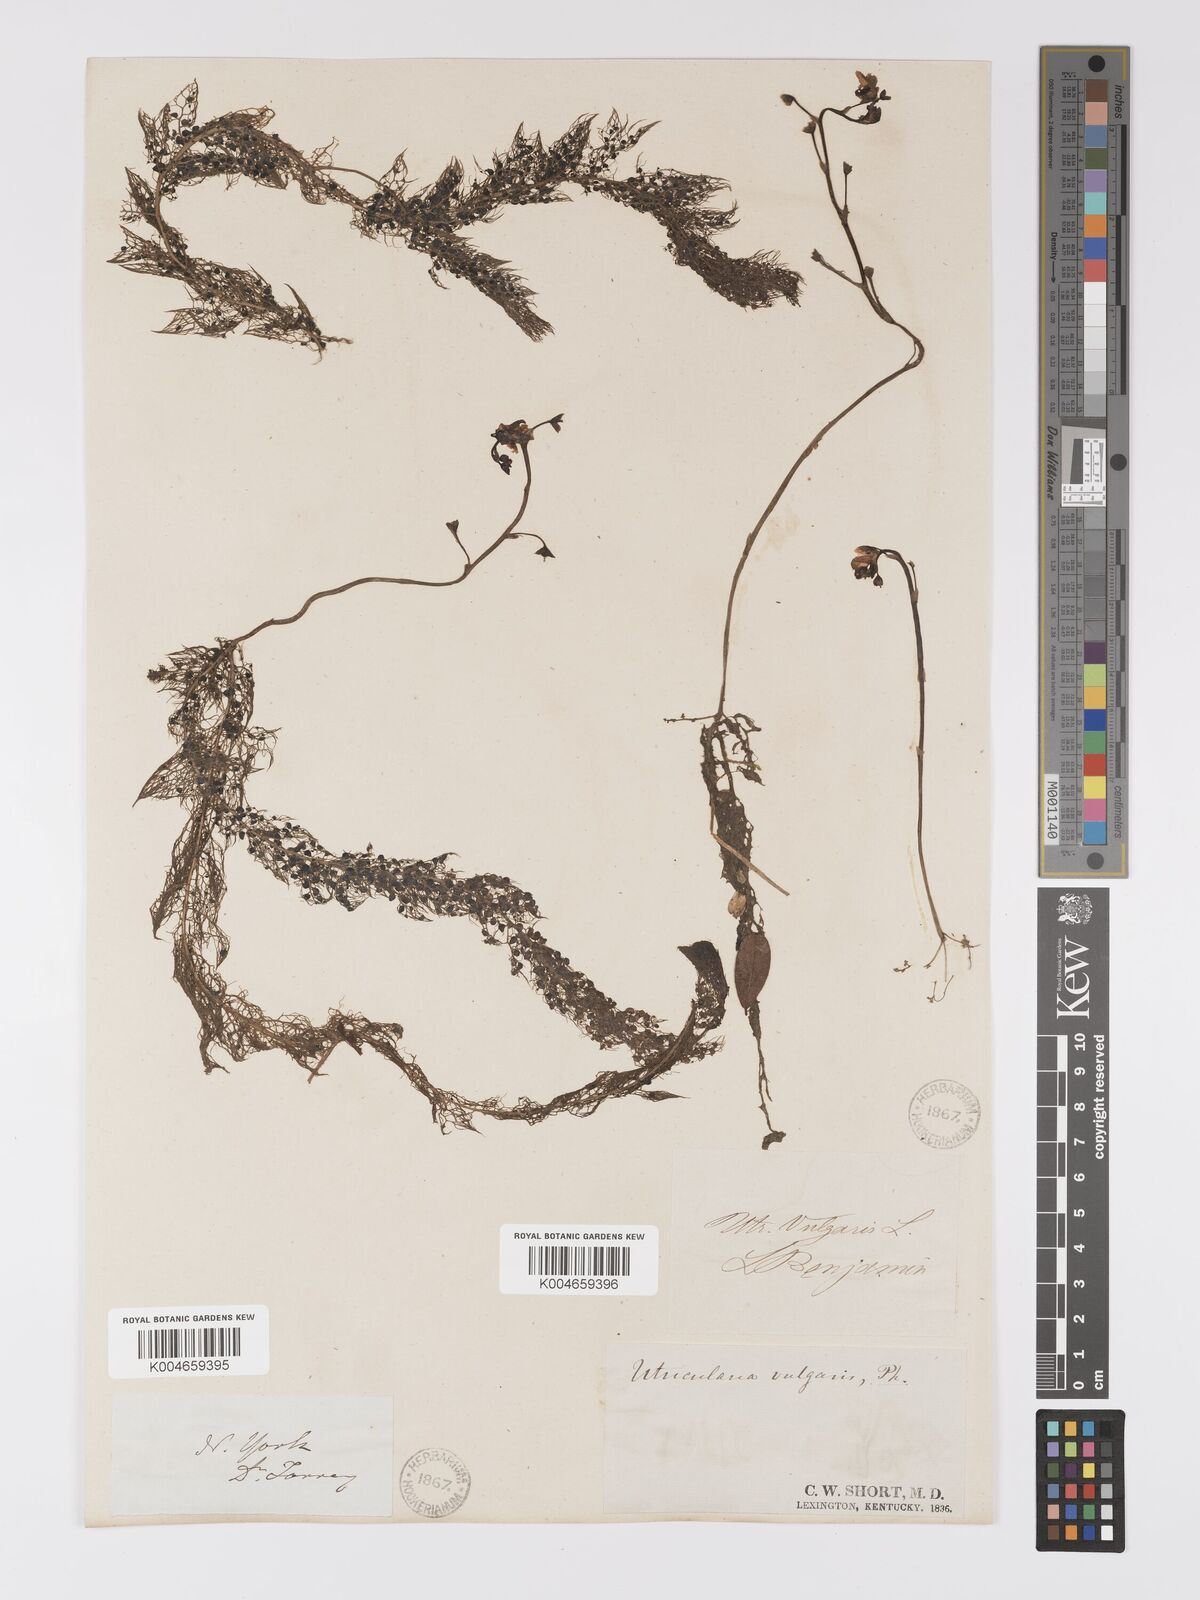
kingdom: Plantae
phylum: Tracheophyta
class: Magnoliopsida
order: Lamiales
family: Lentibulariaceae
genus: Utricularia
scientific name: Utricularia macrorhiza
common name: Common bladderwort
